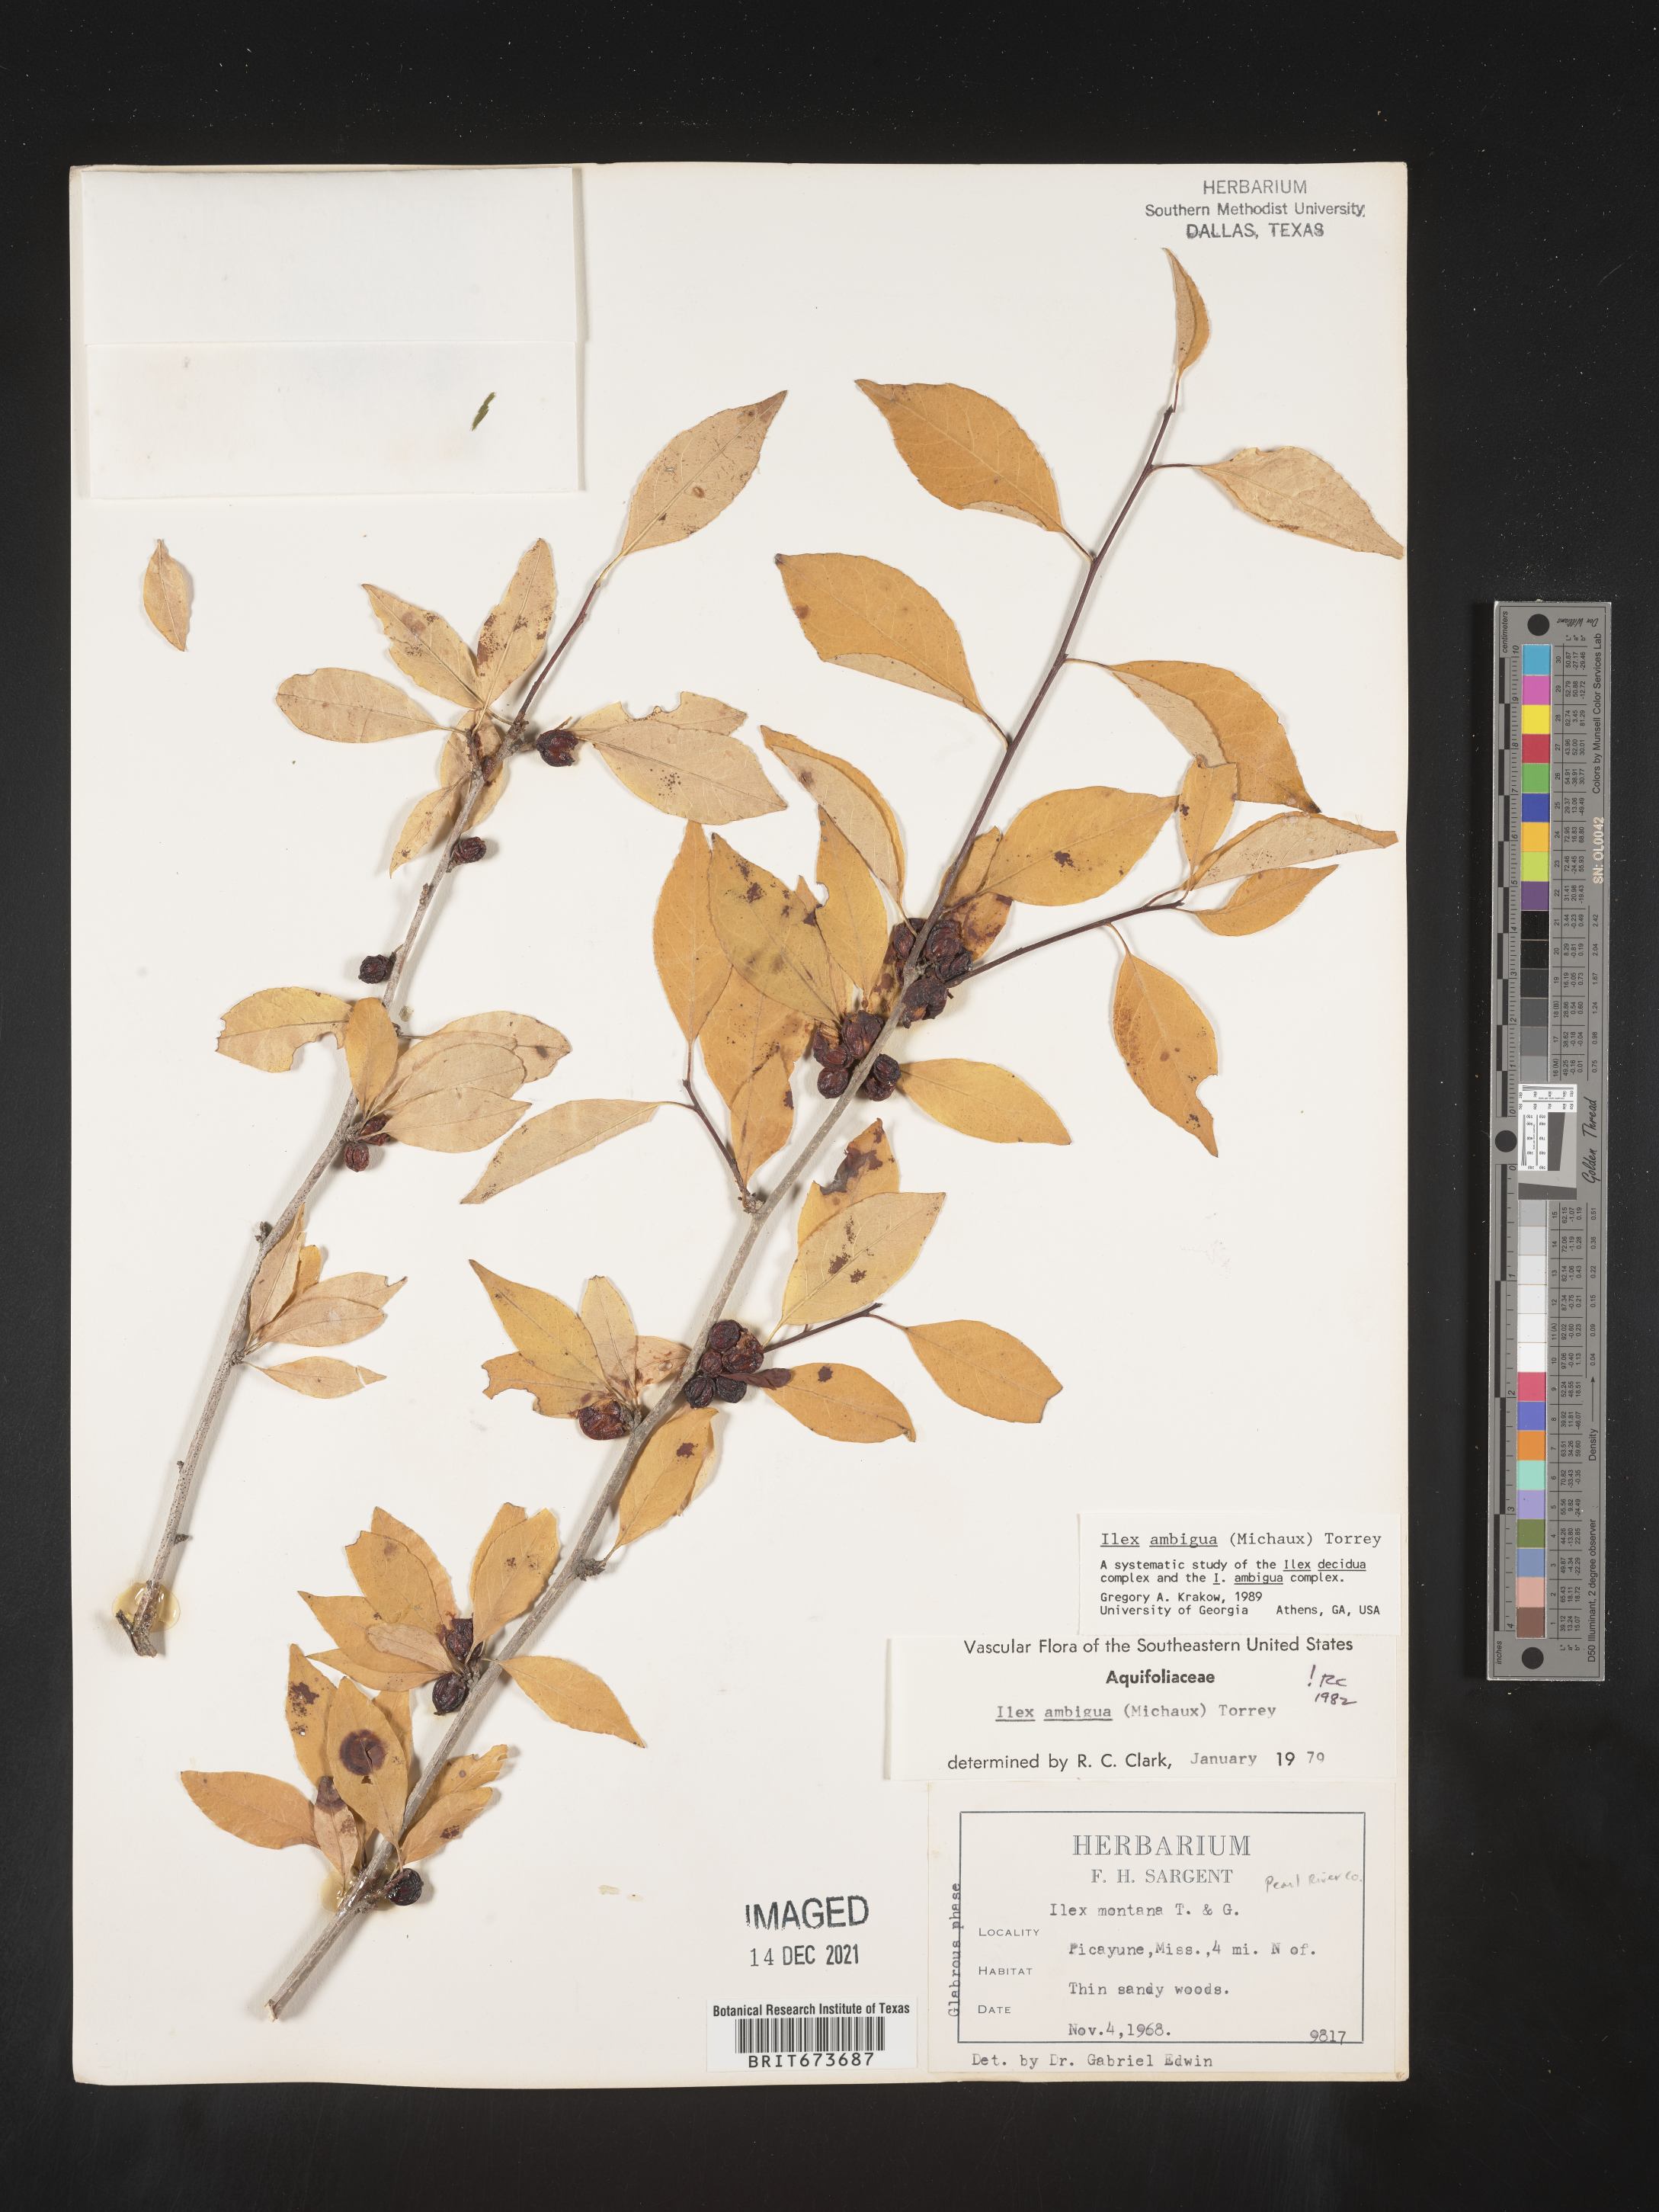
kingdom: Plantae
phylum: Tracheophyta
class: Magnoliopsida
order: Aquifoliales
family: Aquifoliaceae
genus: Ilex
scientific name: Ilex ambigua
